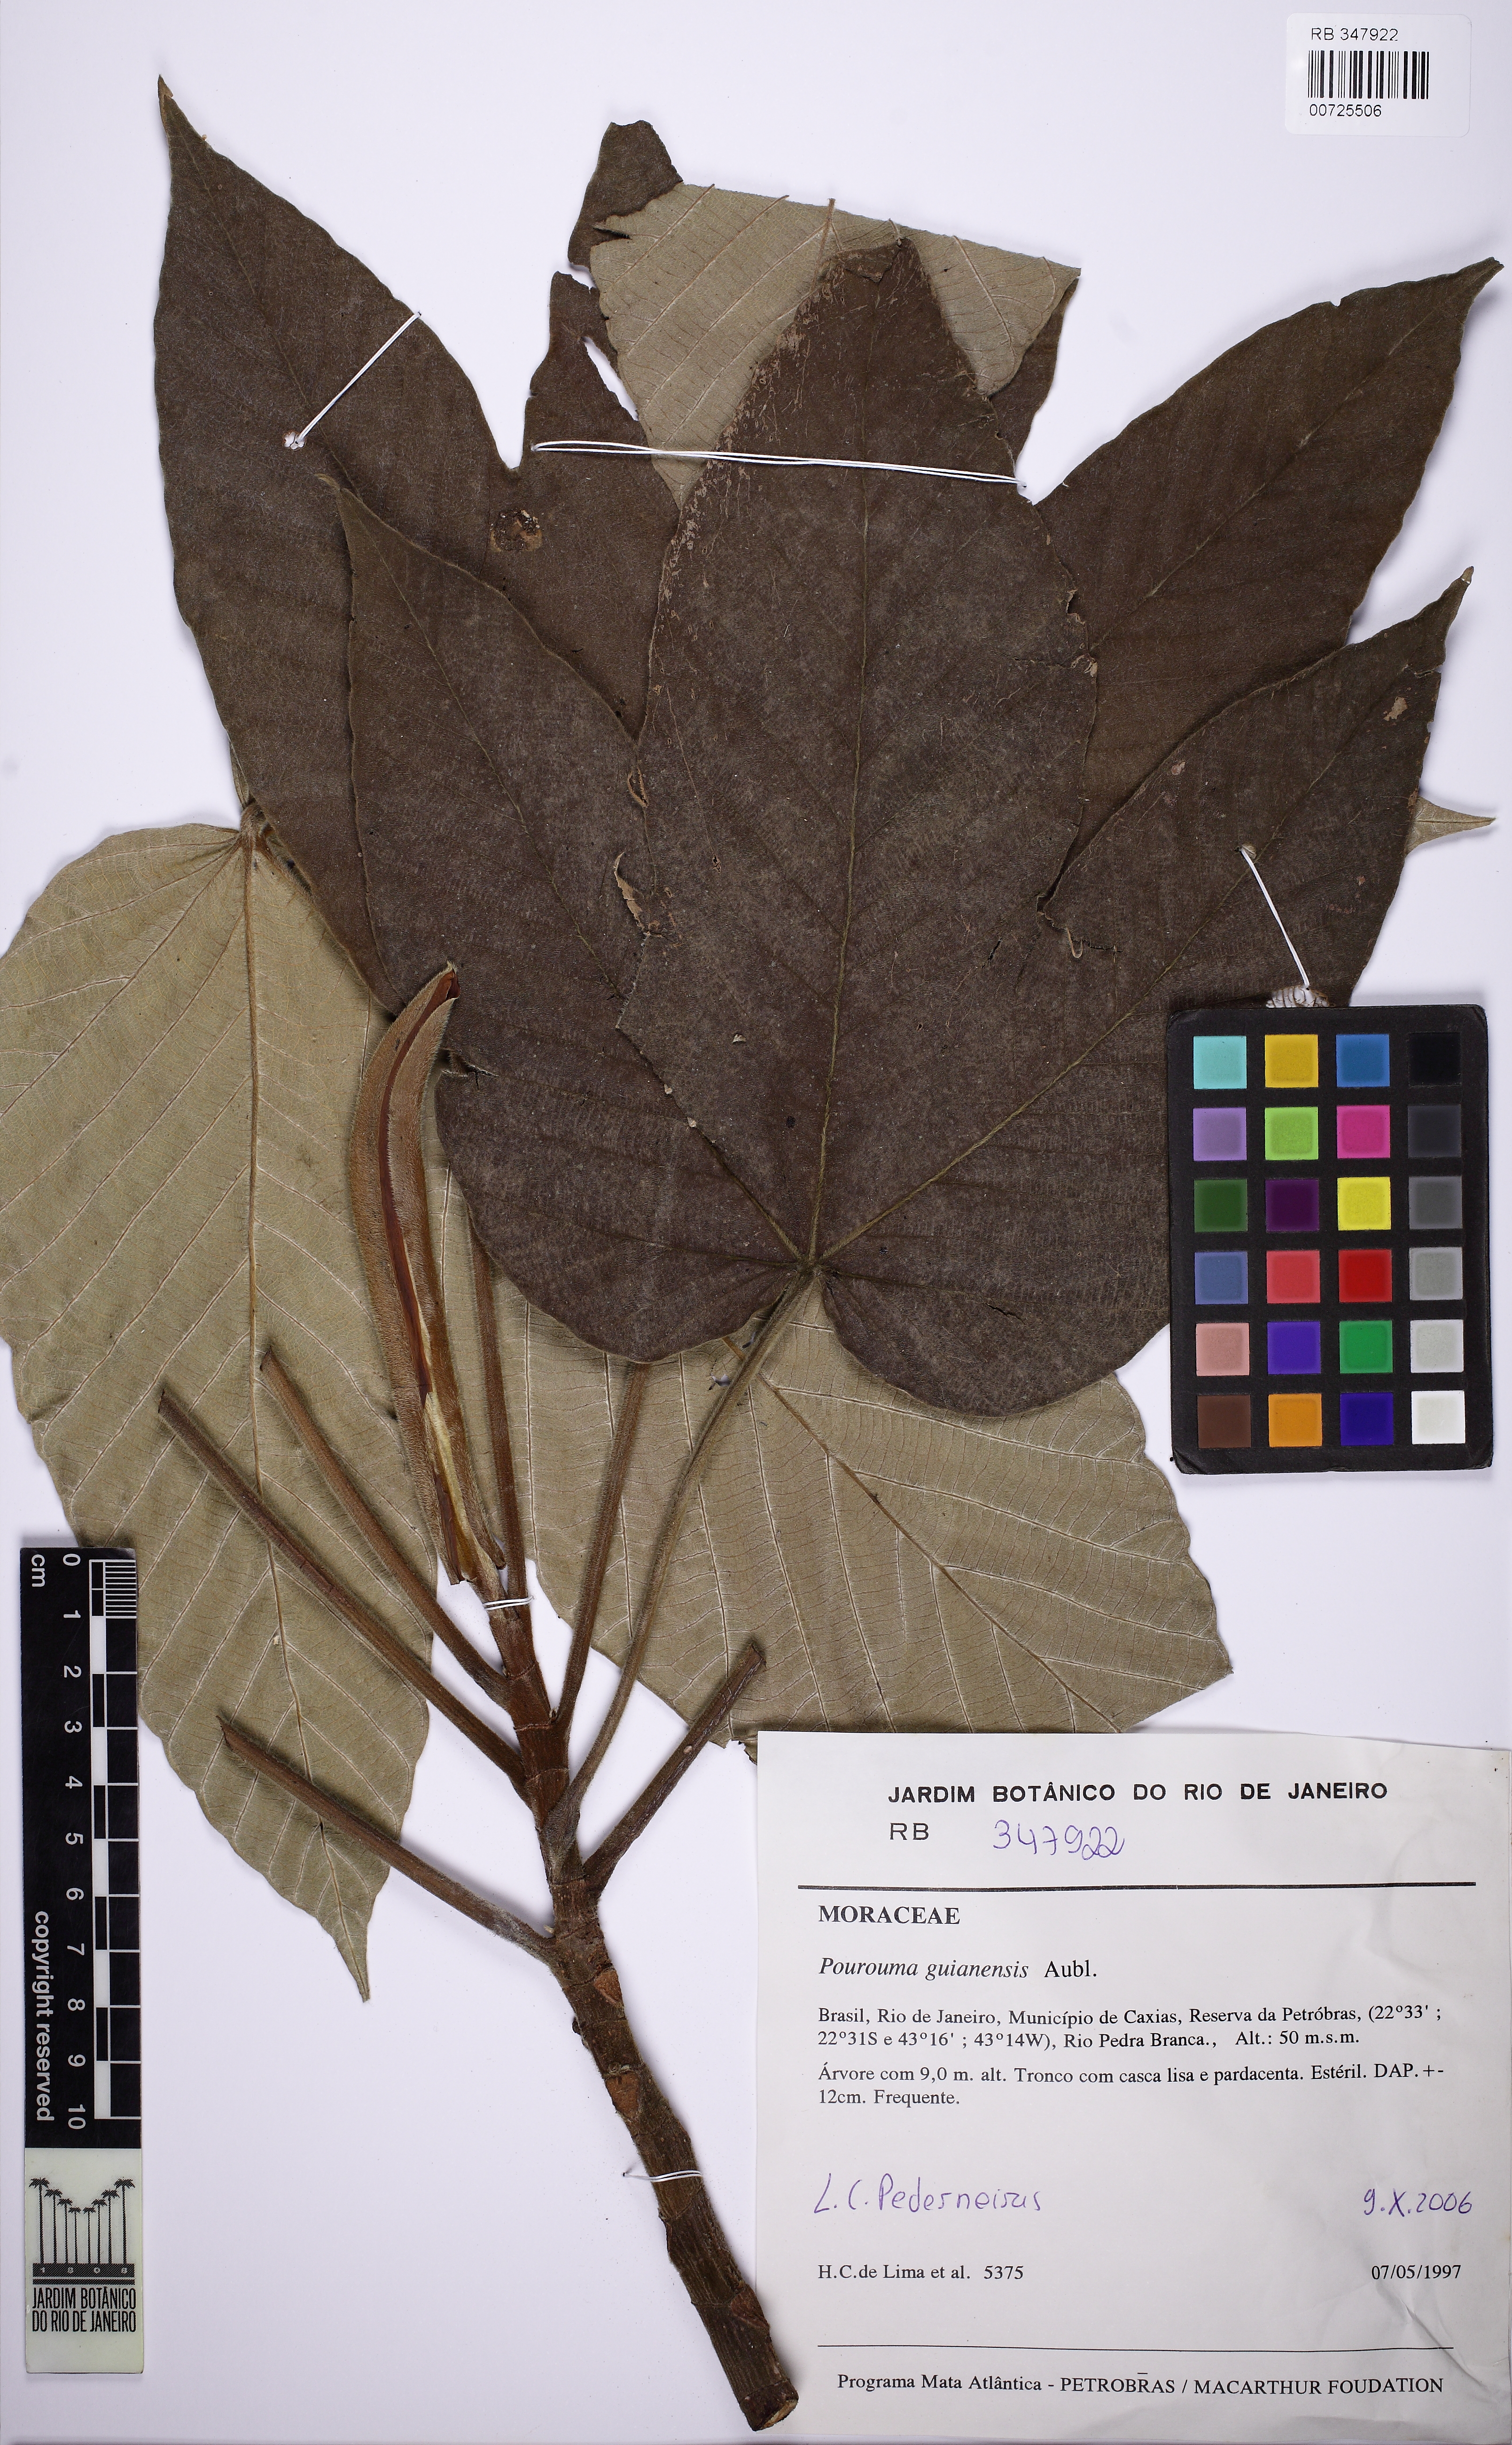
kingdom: Plantae
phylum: Tracheophyta
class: Magnoliopsida
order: Rosales
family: Urticaceae
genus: Pourouma
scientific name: Pourouma guianensis
